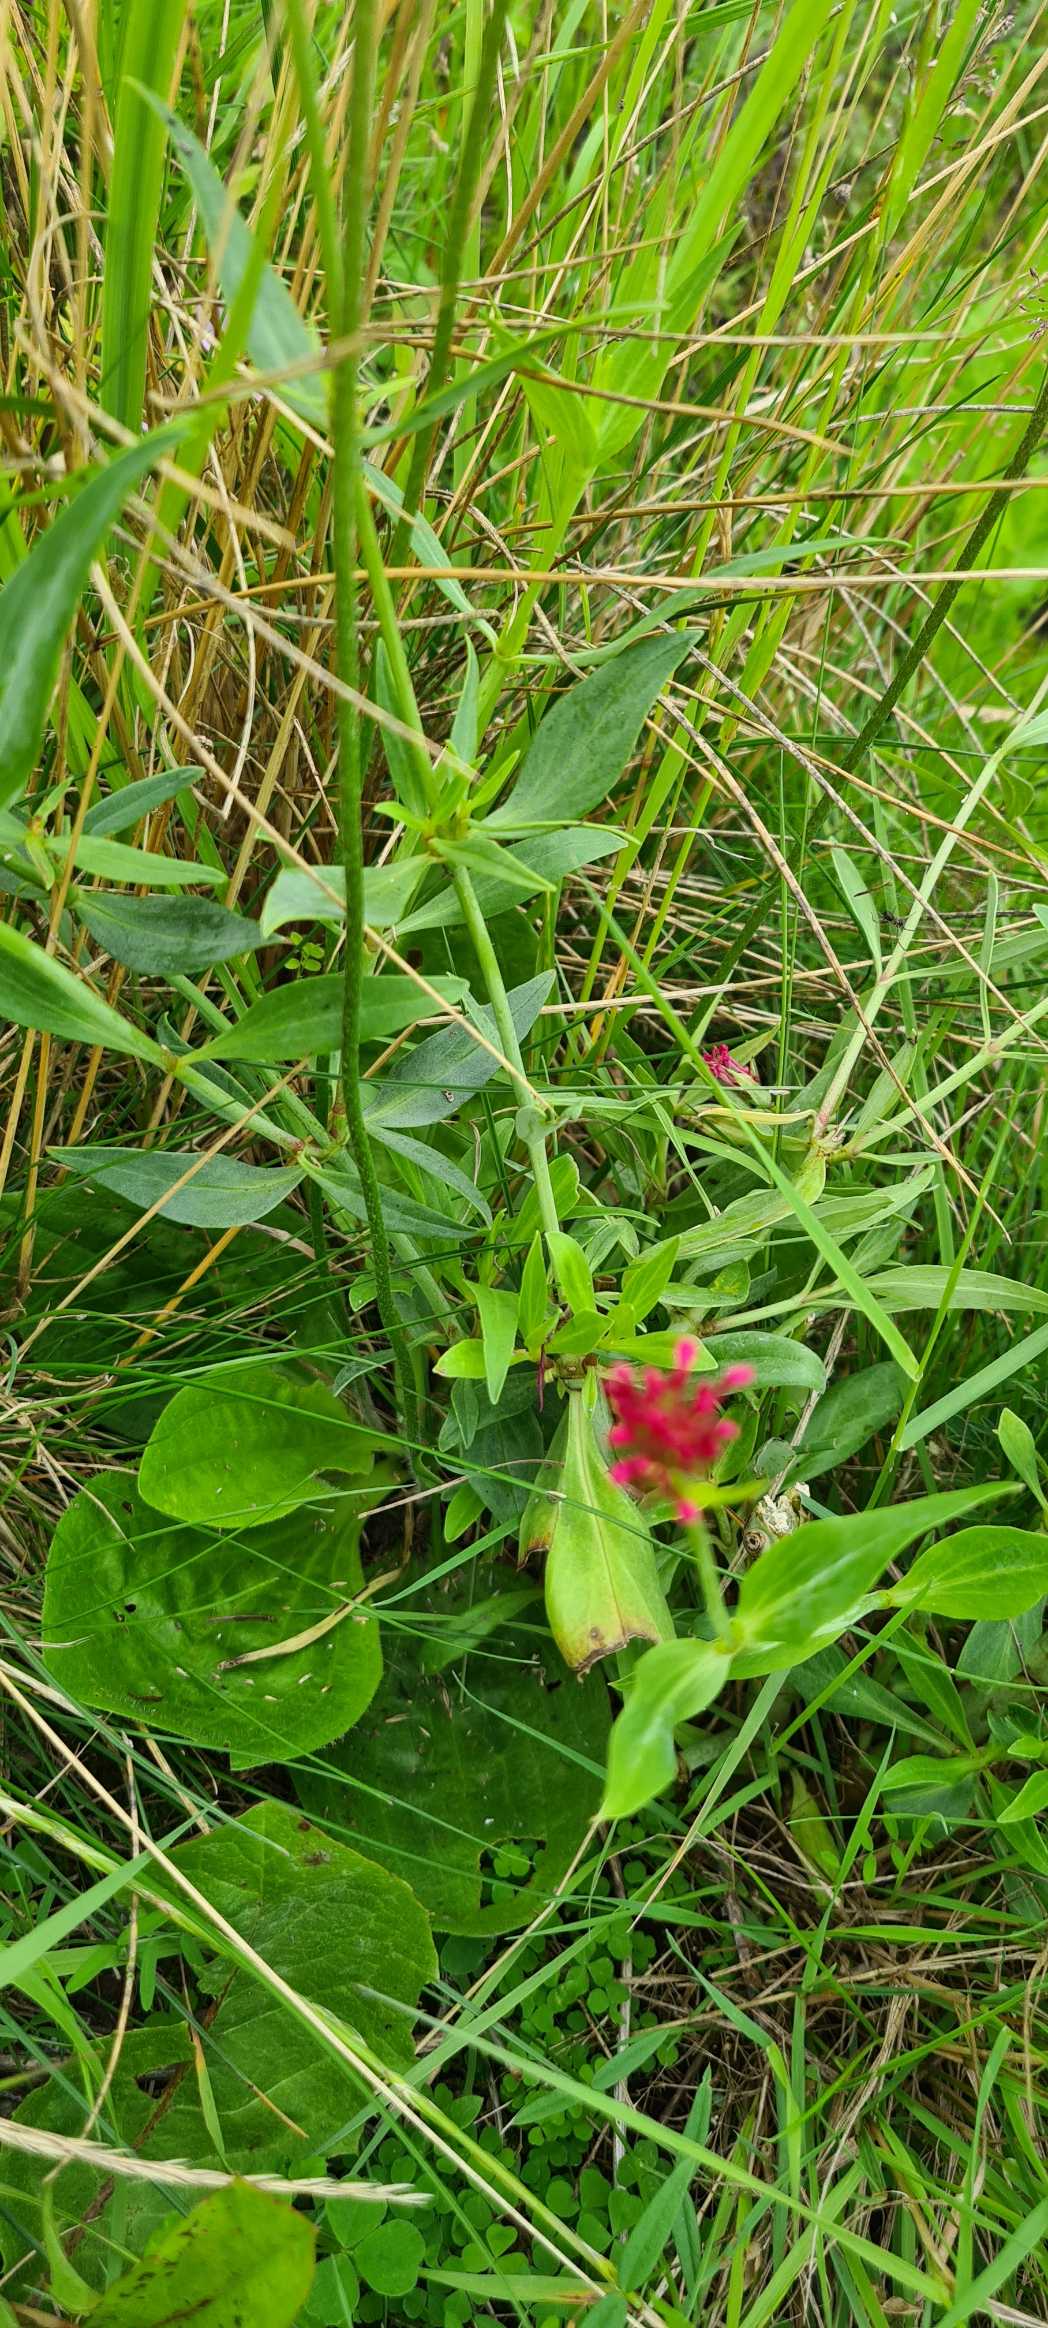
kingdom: Plantae
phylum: Tracheophyta
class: Magnoliopsida
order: Dipsacales
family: Caprifoliaceae
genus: Centranthus
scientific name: Centranthus ruber
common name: Sporebaldrian
